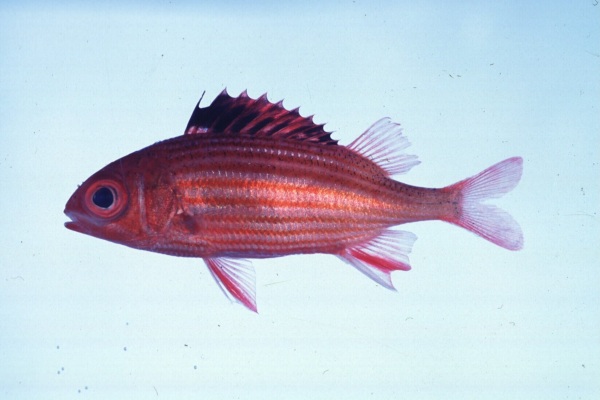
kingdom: Animalia
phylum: Chordata
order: Beryciformes
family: Holocentridae
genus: Sargocentron
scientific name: Sargocentron diadema
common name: Crown squirrelfish
